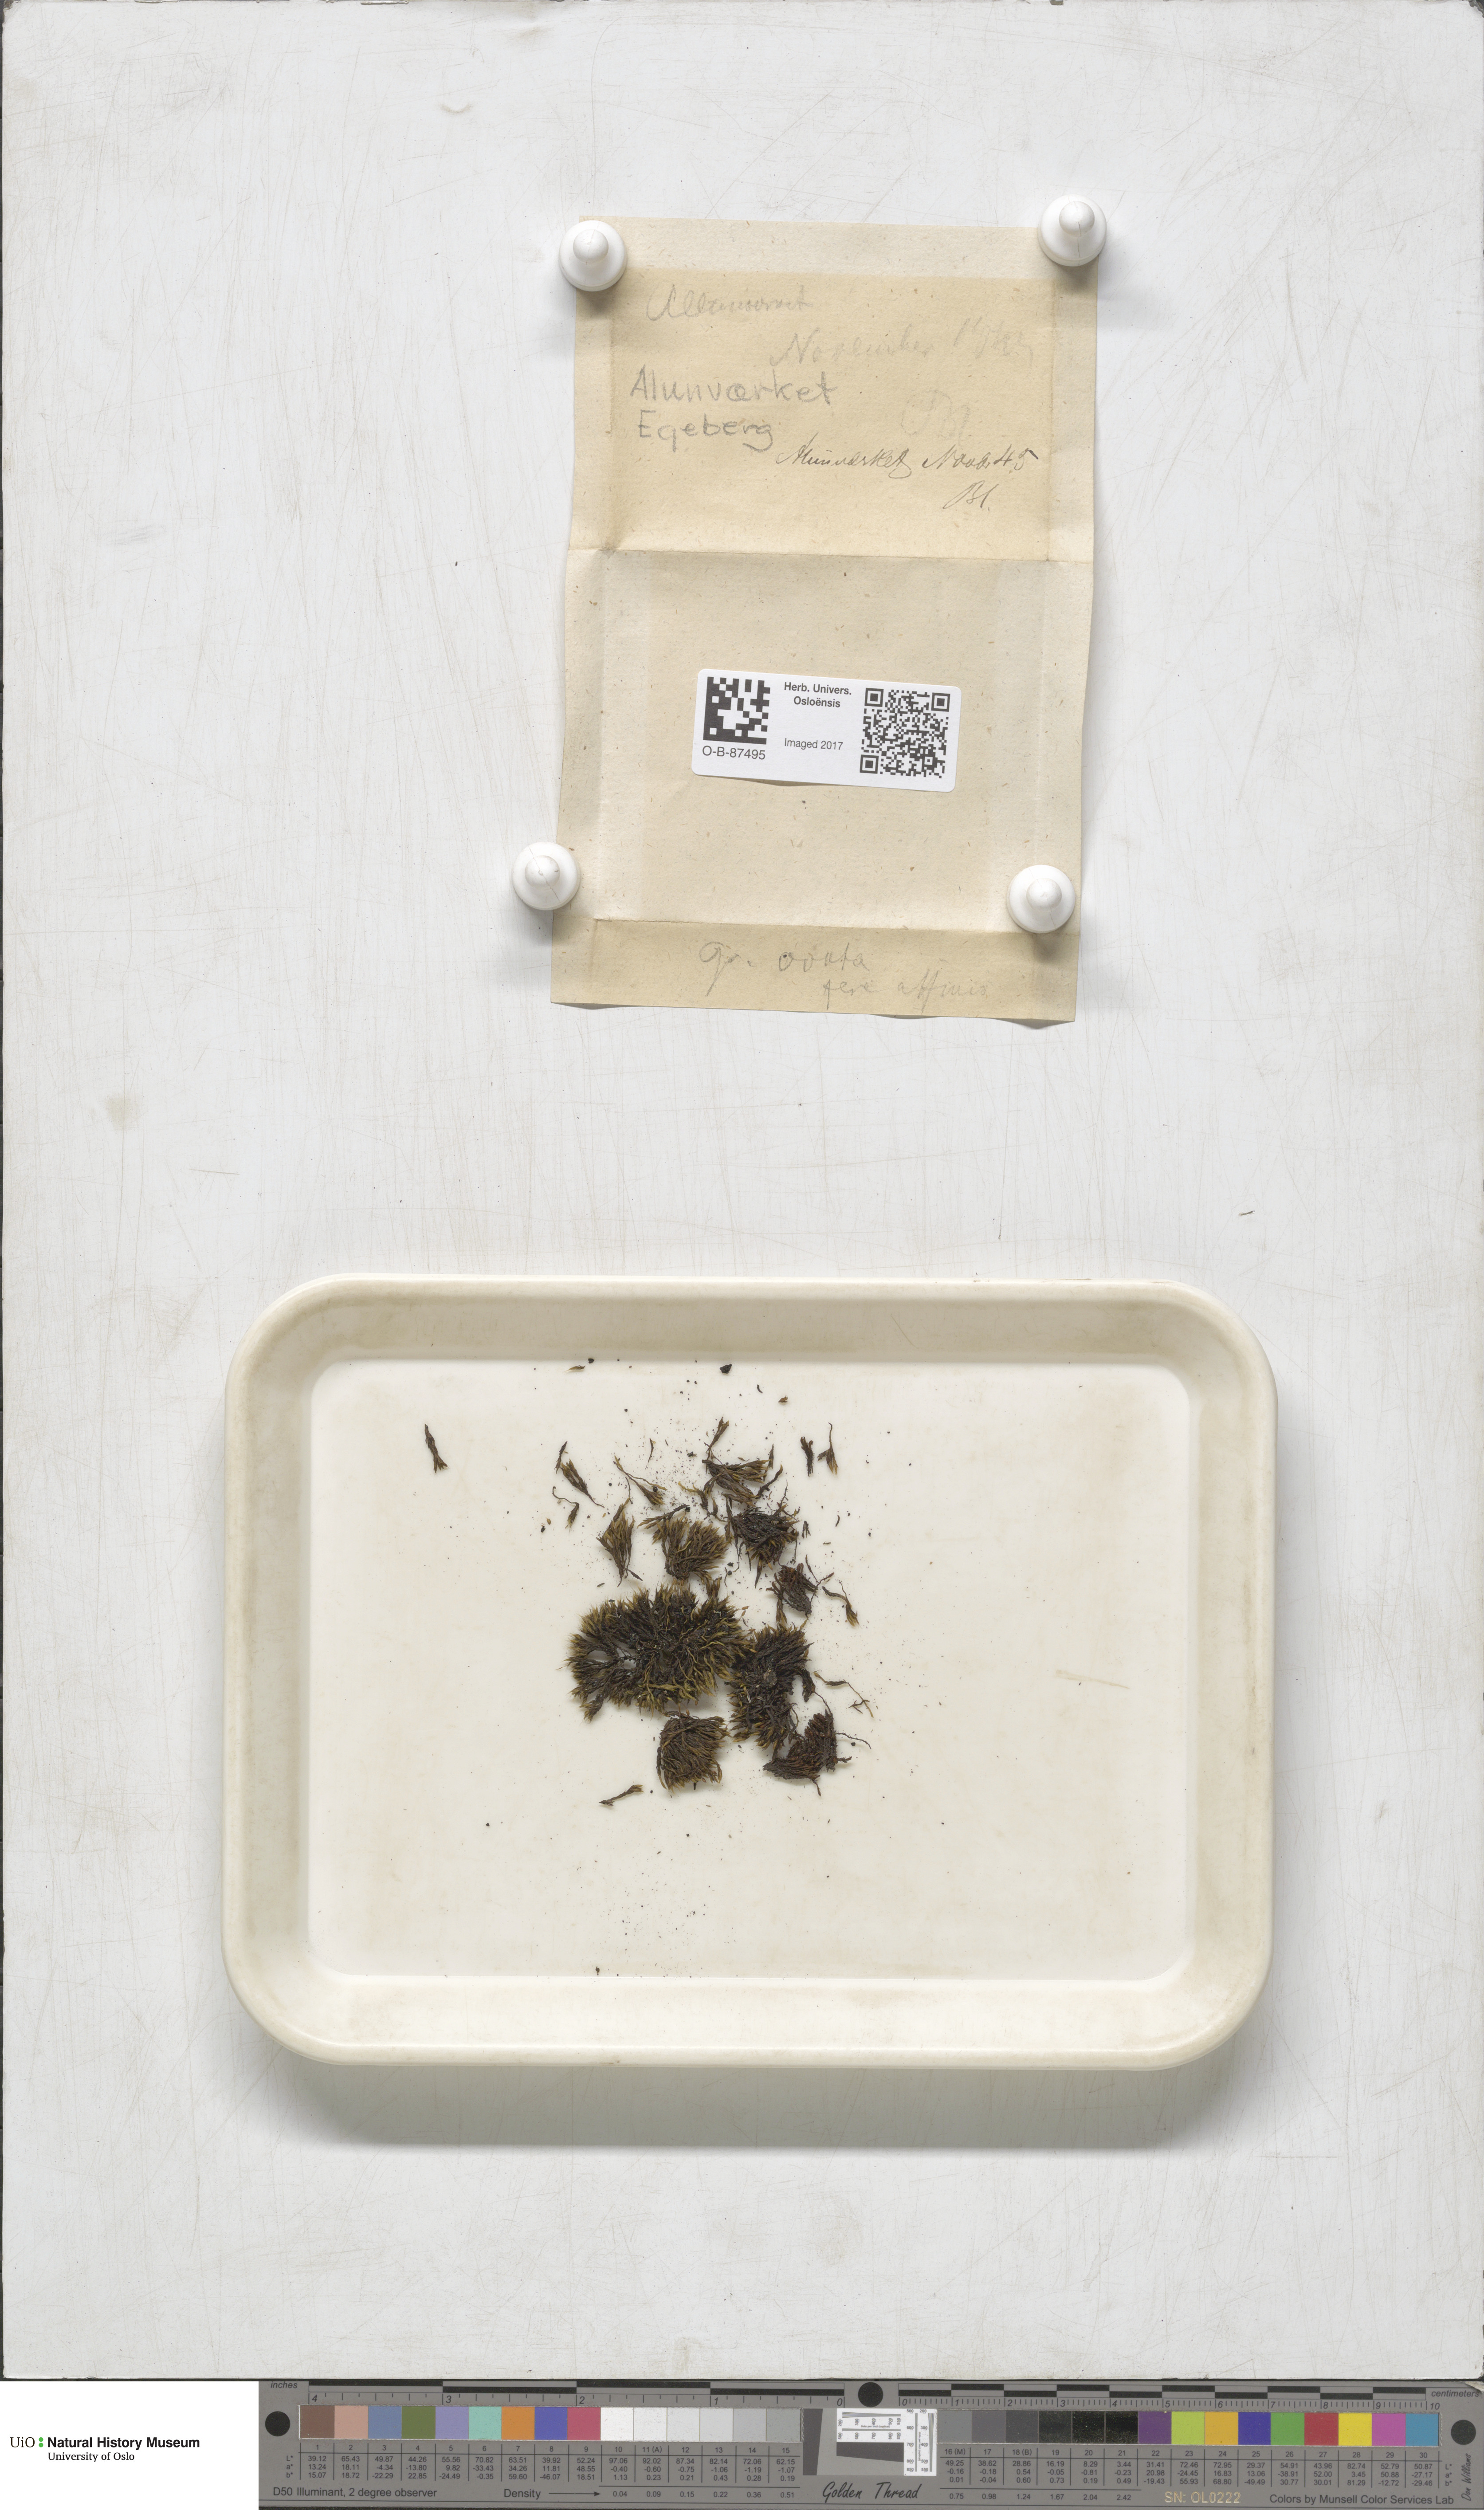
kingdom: Plantae
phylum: Bryophyta
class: Bryopsida
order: Grimmiales
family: Grimmiaceae
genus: Grimmia
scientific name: Grimmia ovalis
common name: Oval grimmia
